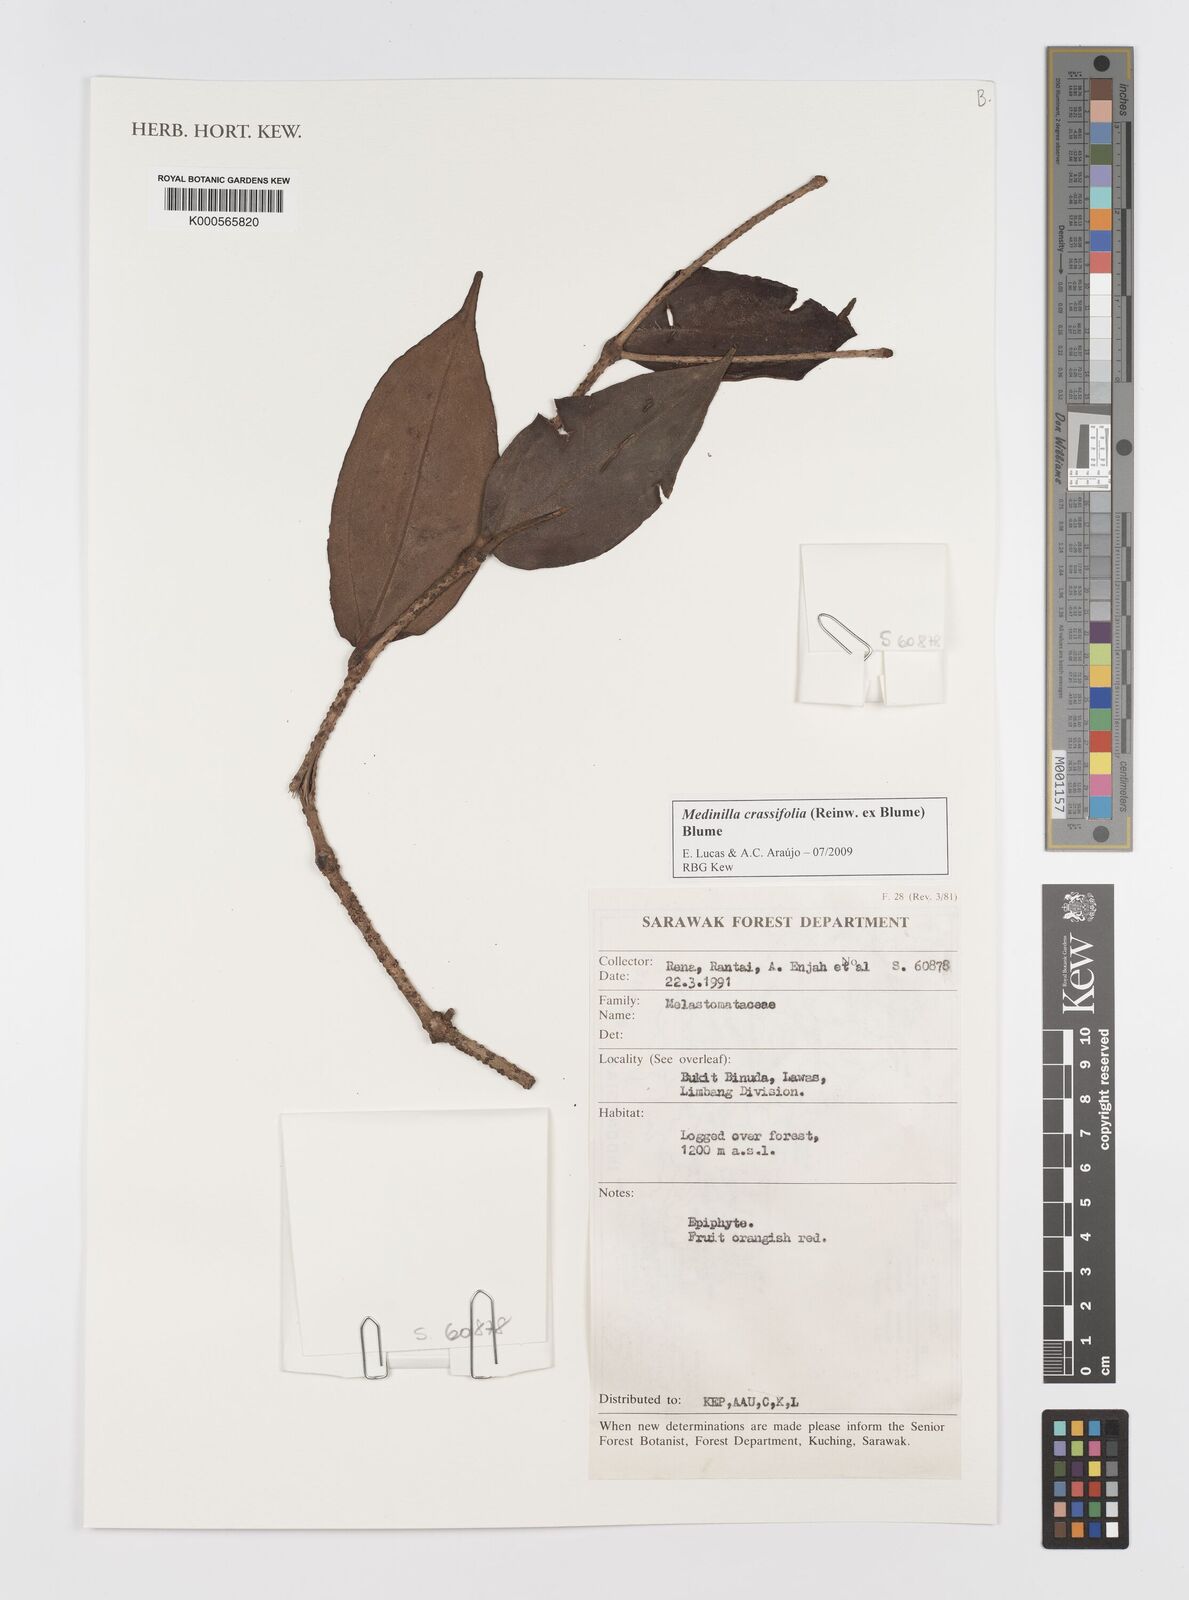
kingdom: Plantae
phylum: Tracheophyta
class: Magnoliopsida
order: Myrtales
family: Melastomataceae
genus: Medinilla
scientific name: Medinilla crassifolia
